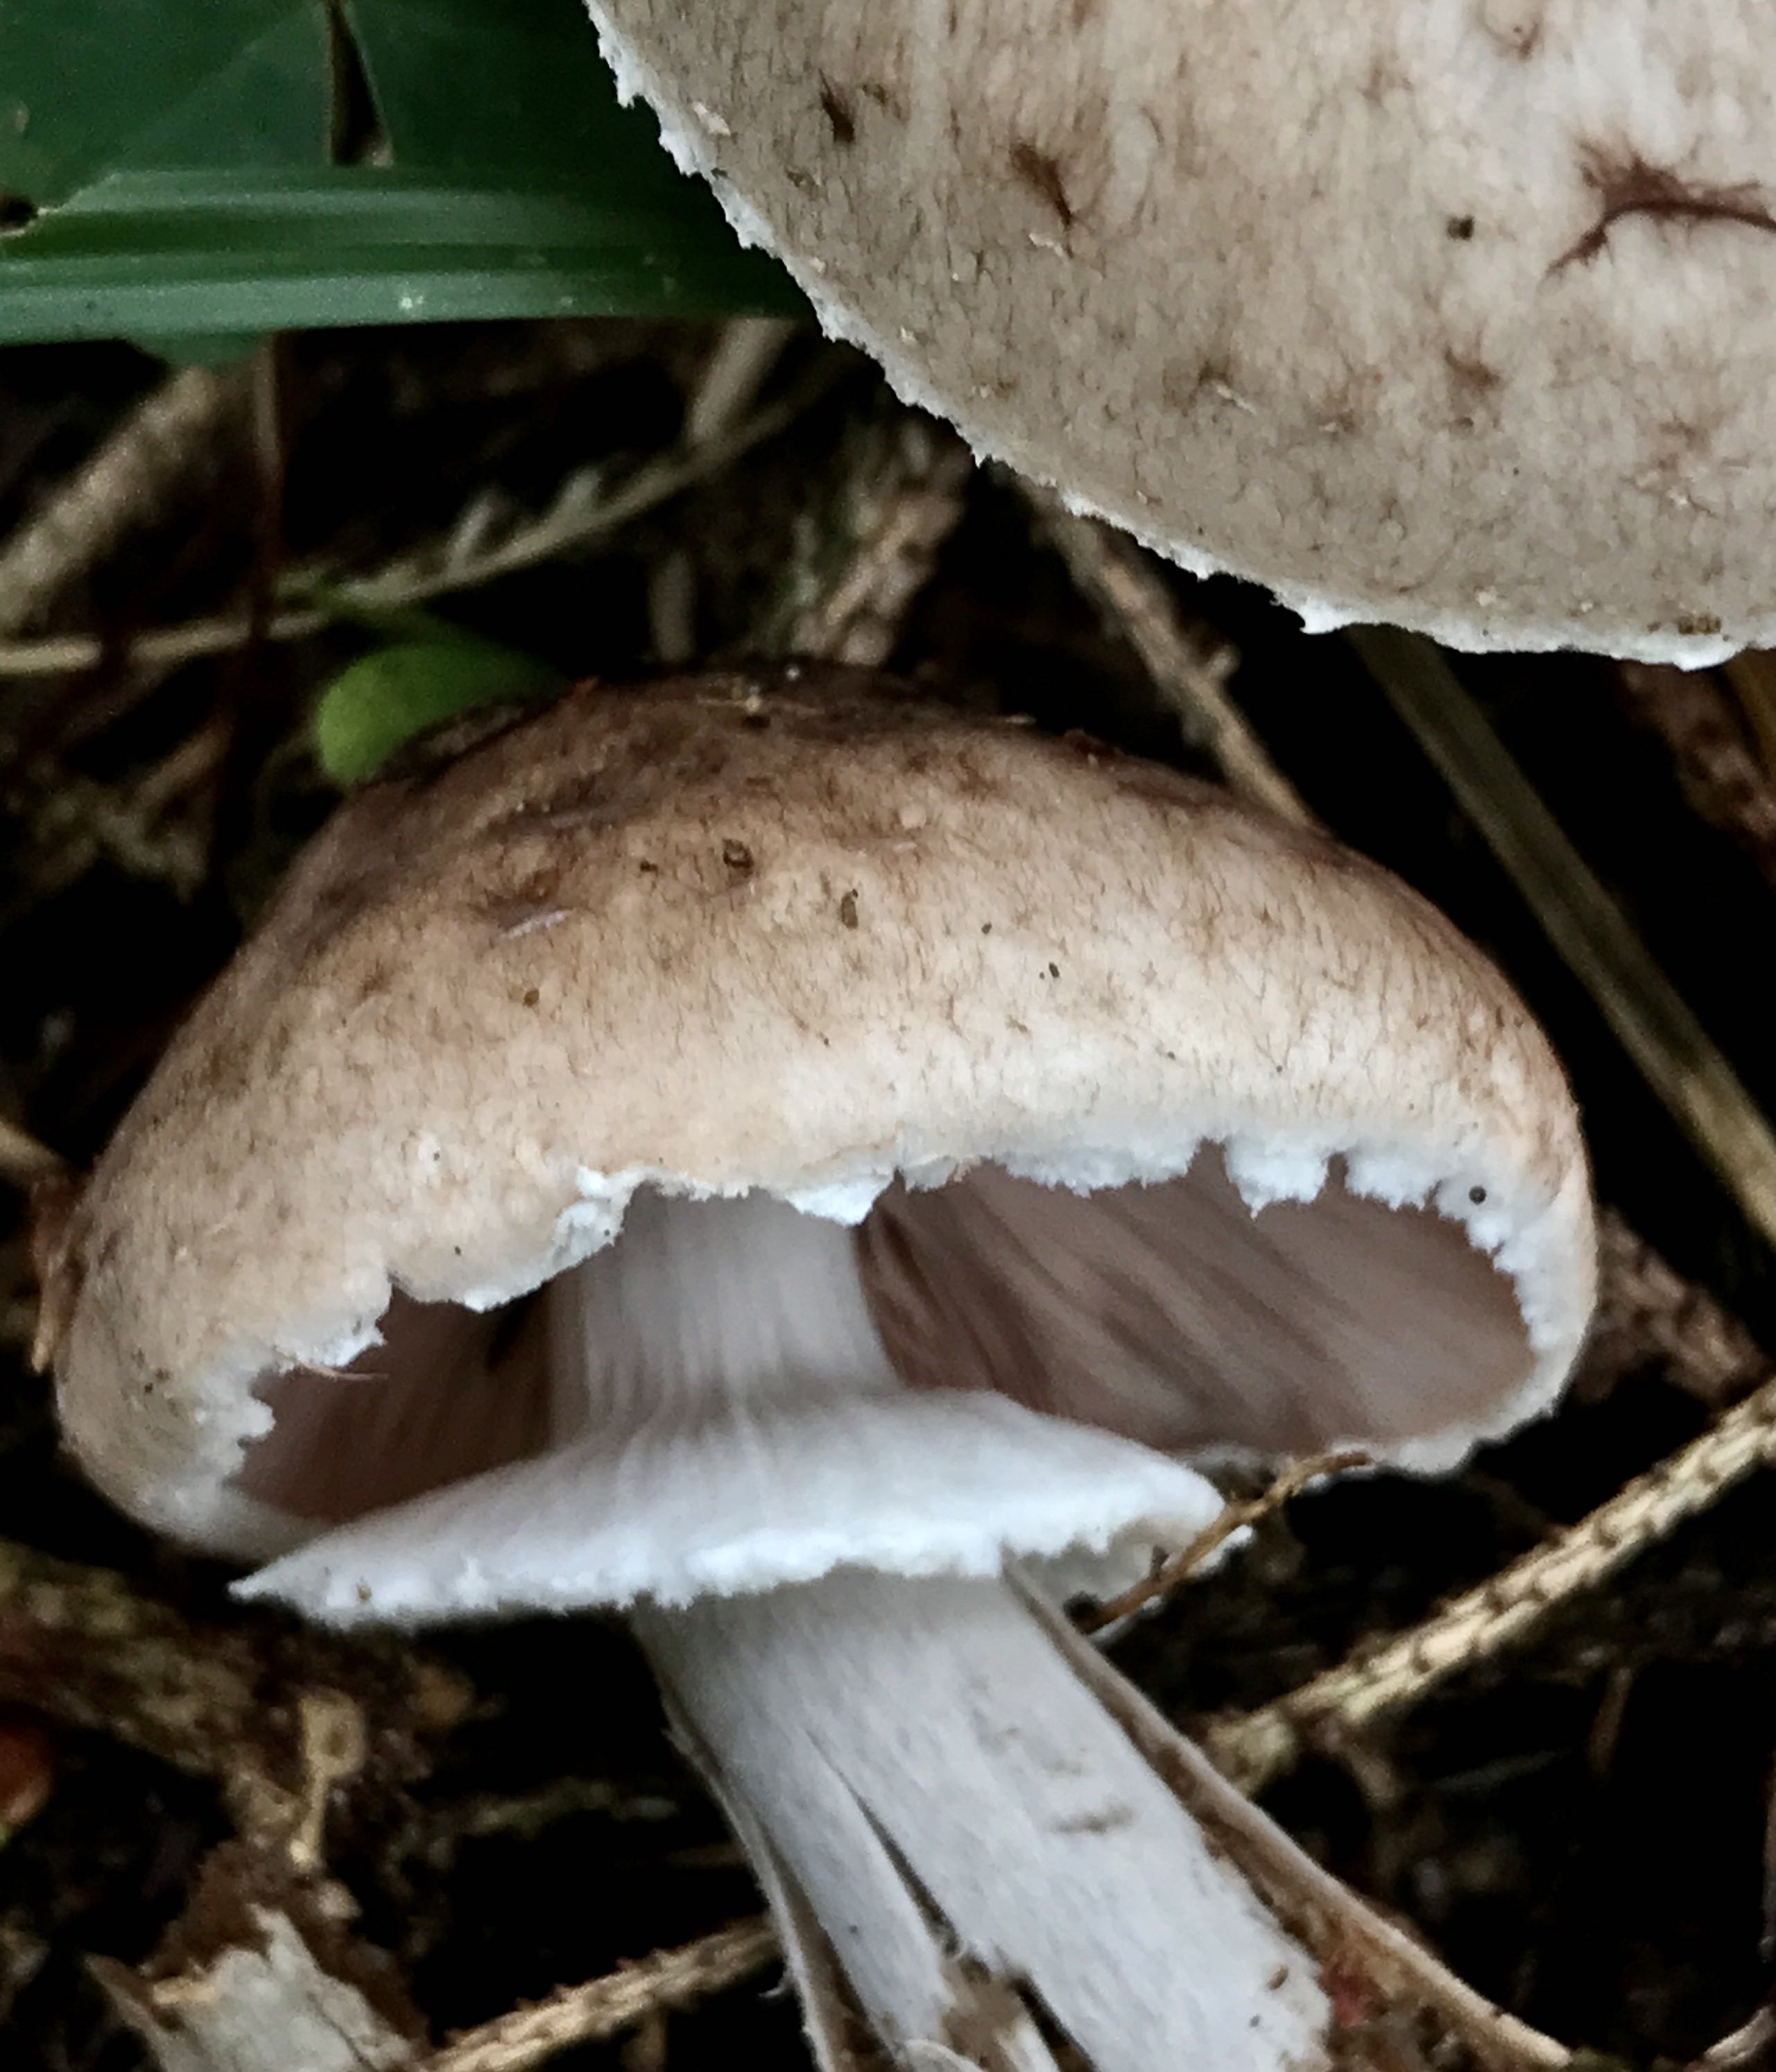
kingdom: Fungi
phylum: Basidiomycota
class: Agaricomycetes
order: Agaricales
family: Agaricaceae
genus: Agaricus
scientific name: Agaricus impudicus
